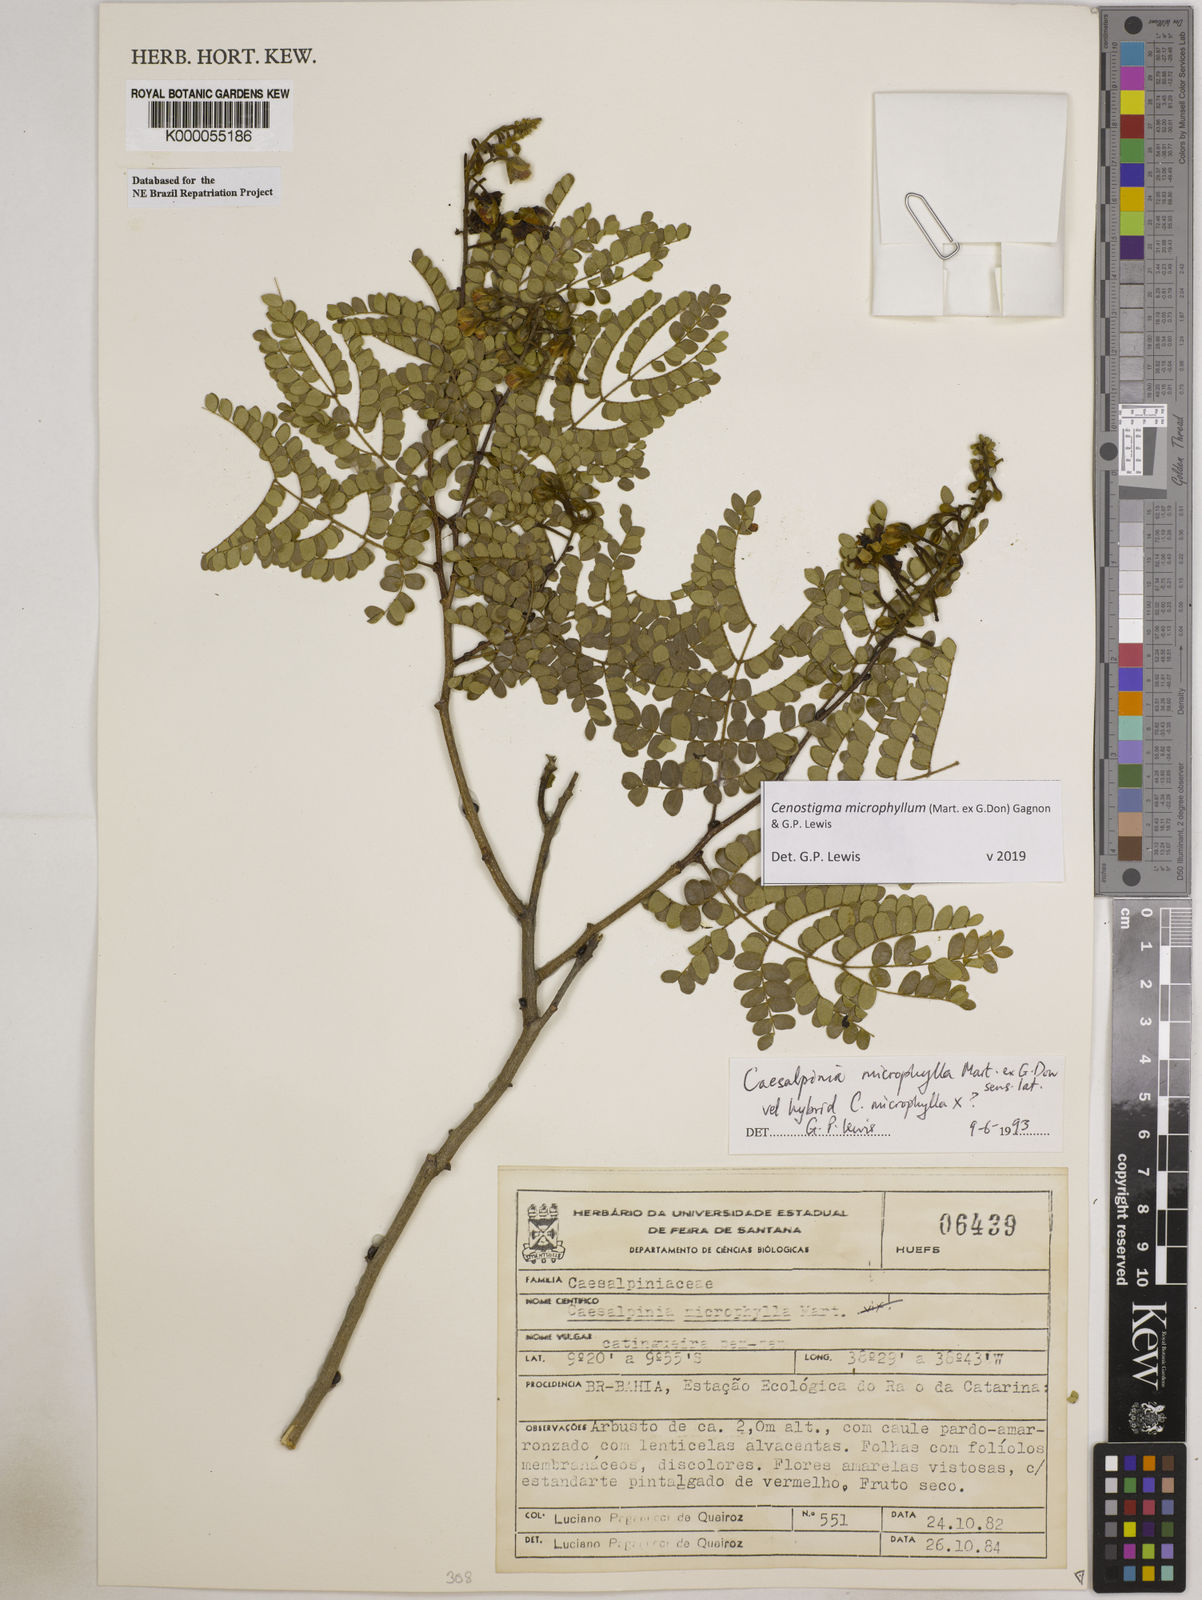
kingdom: Plantae
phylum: Tracheophyta
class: Magnoliopsida
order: Fabales
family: Fabaceae
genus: Cenostigma
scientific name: Cenostigma microphyllum
